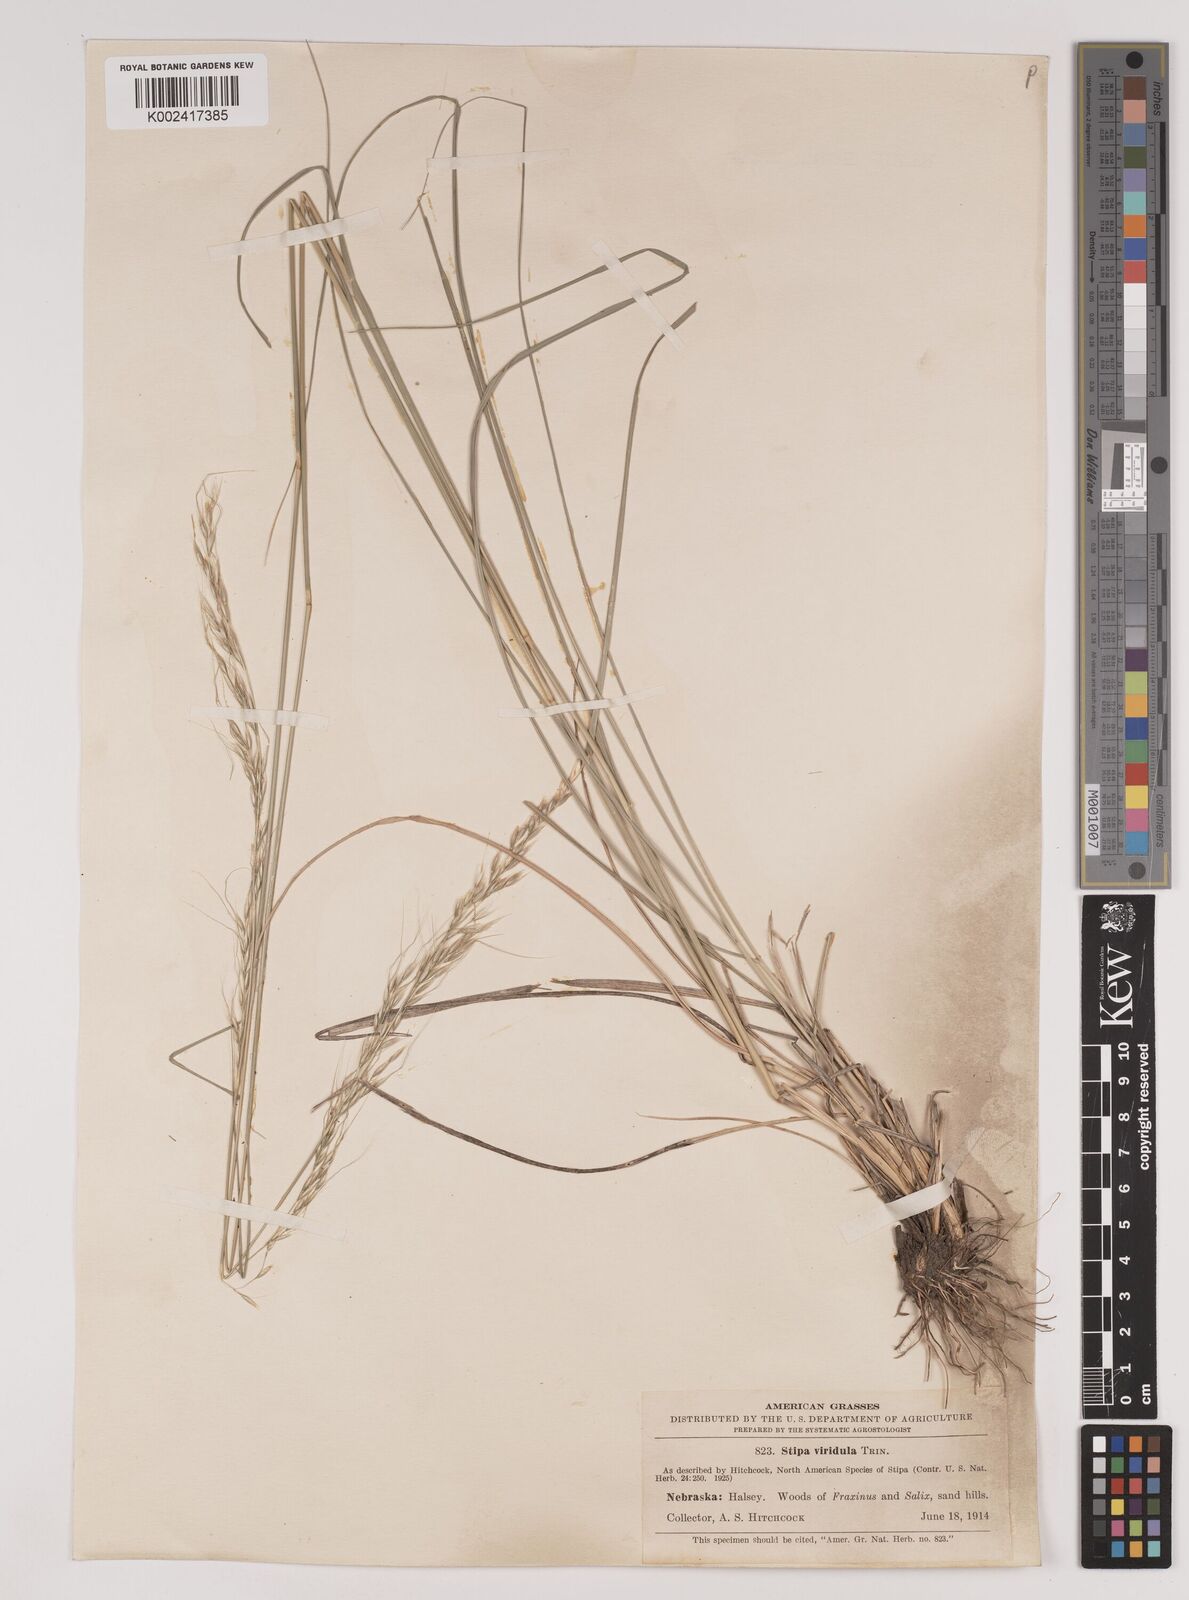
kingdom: Plantae
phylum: Tracheophyta
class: Liliopsida
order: Poales
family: Poaceae
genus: Nassella
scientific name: Nassella viridula
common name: Green needlegrass
